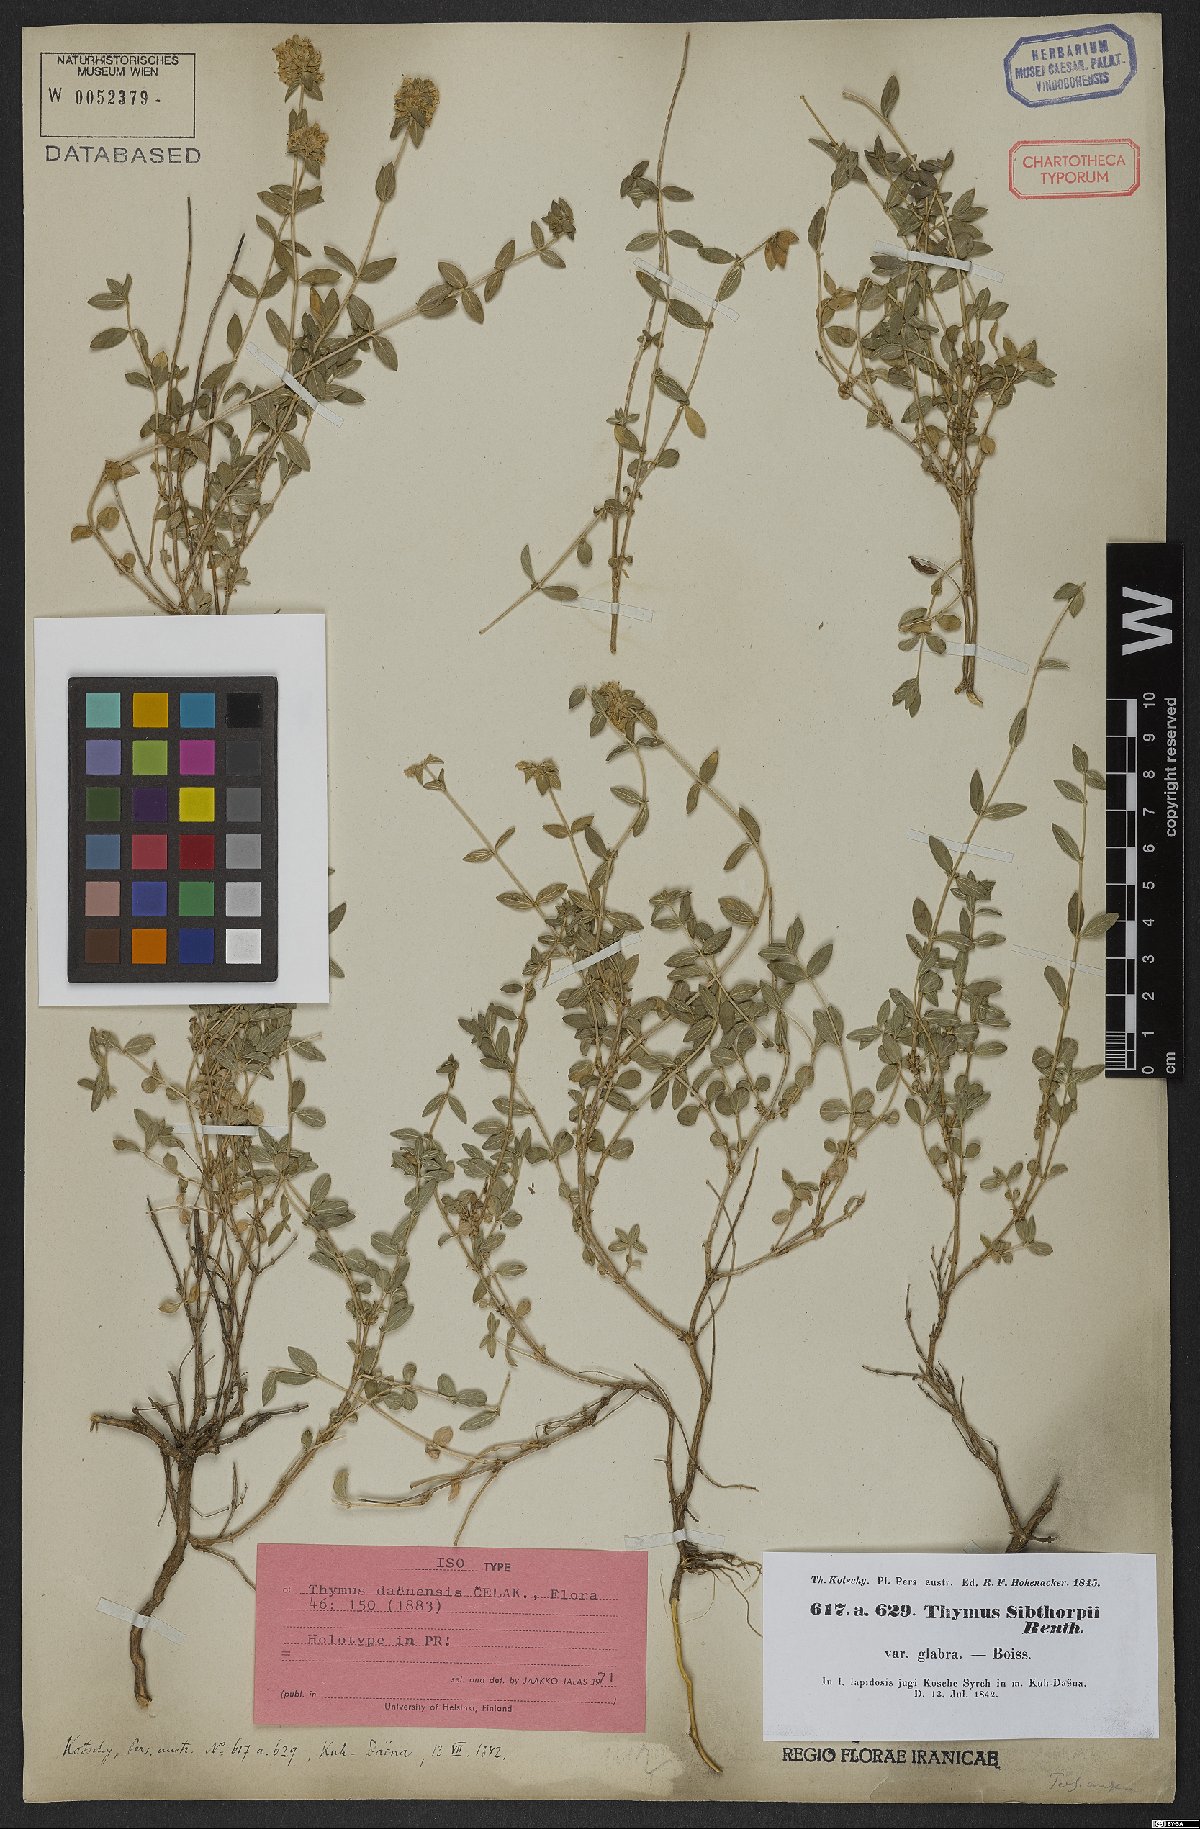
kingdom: Plantae
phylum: Tracheophyta
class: Magnoliopsida
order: Lamiales
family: Lamiaceae
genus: Thymus
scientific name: Thymus daenensis
